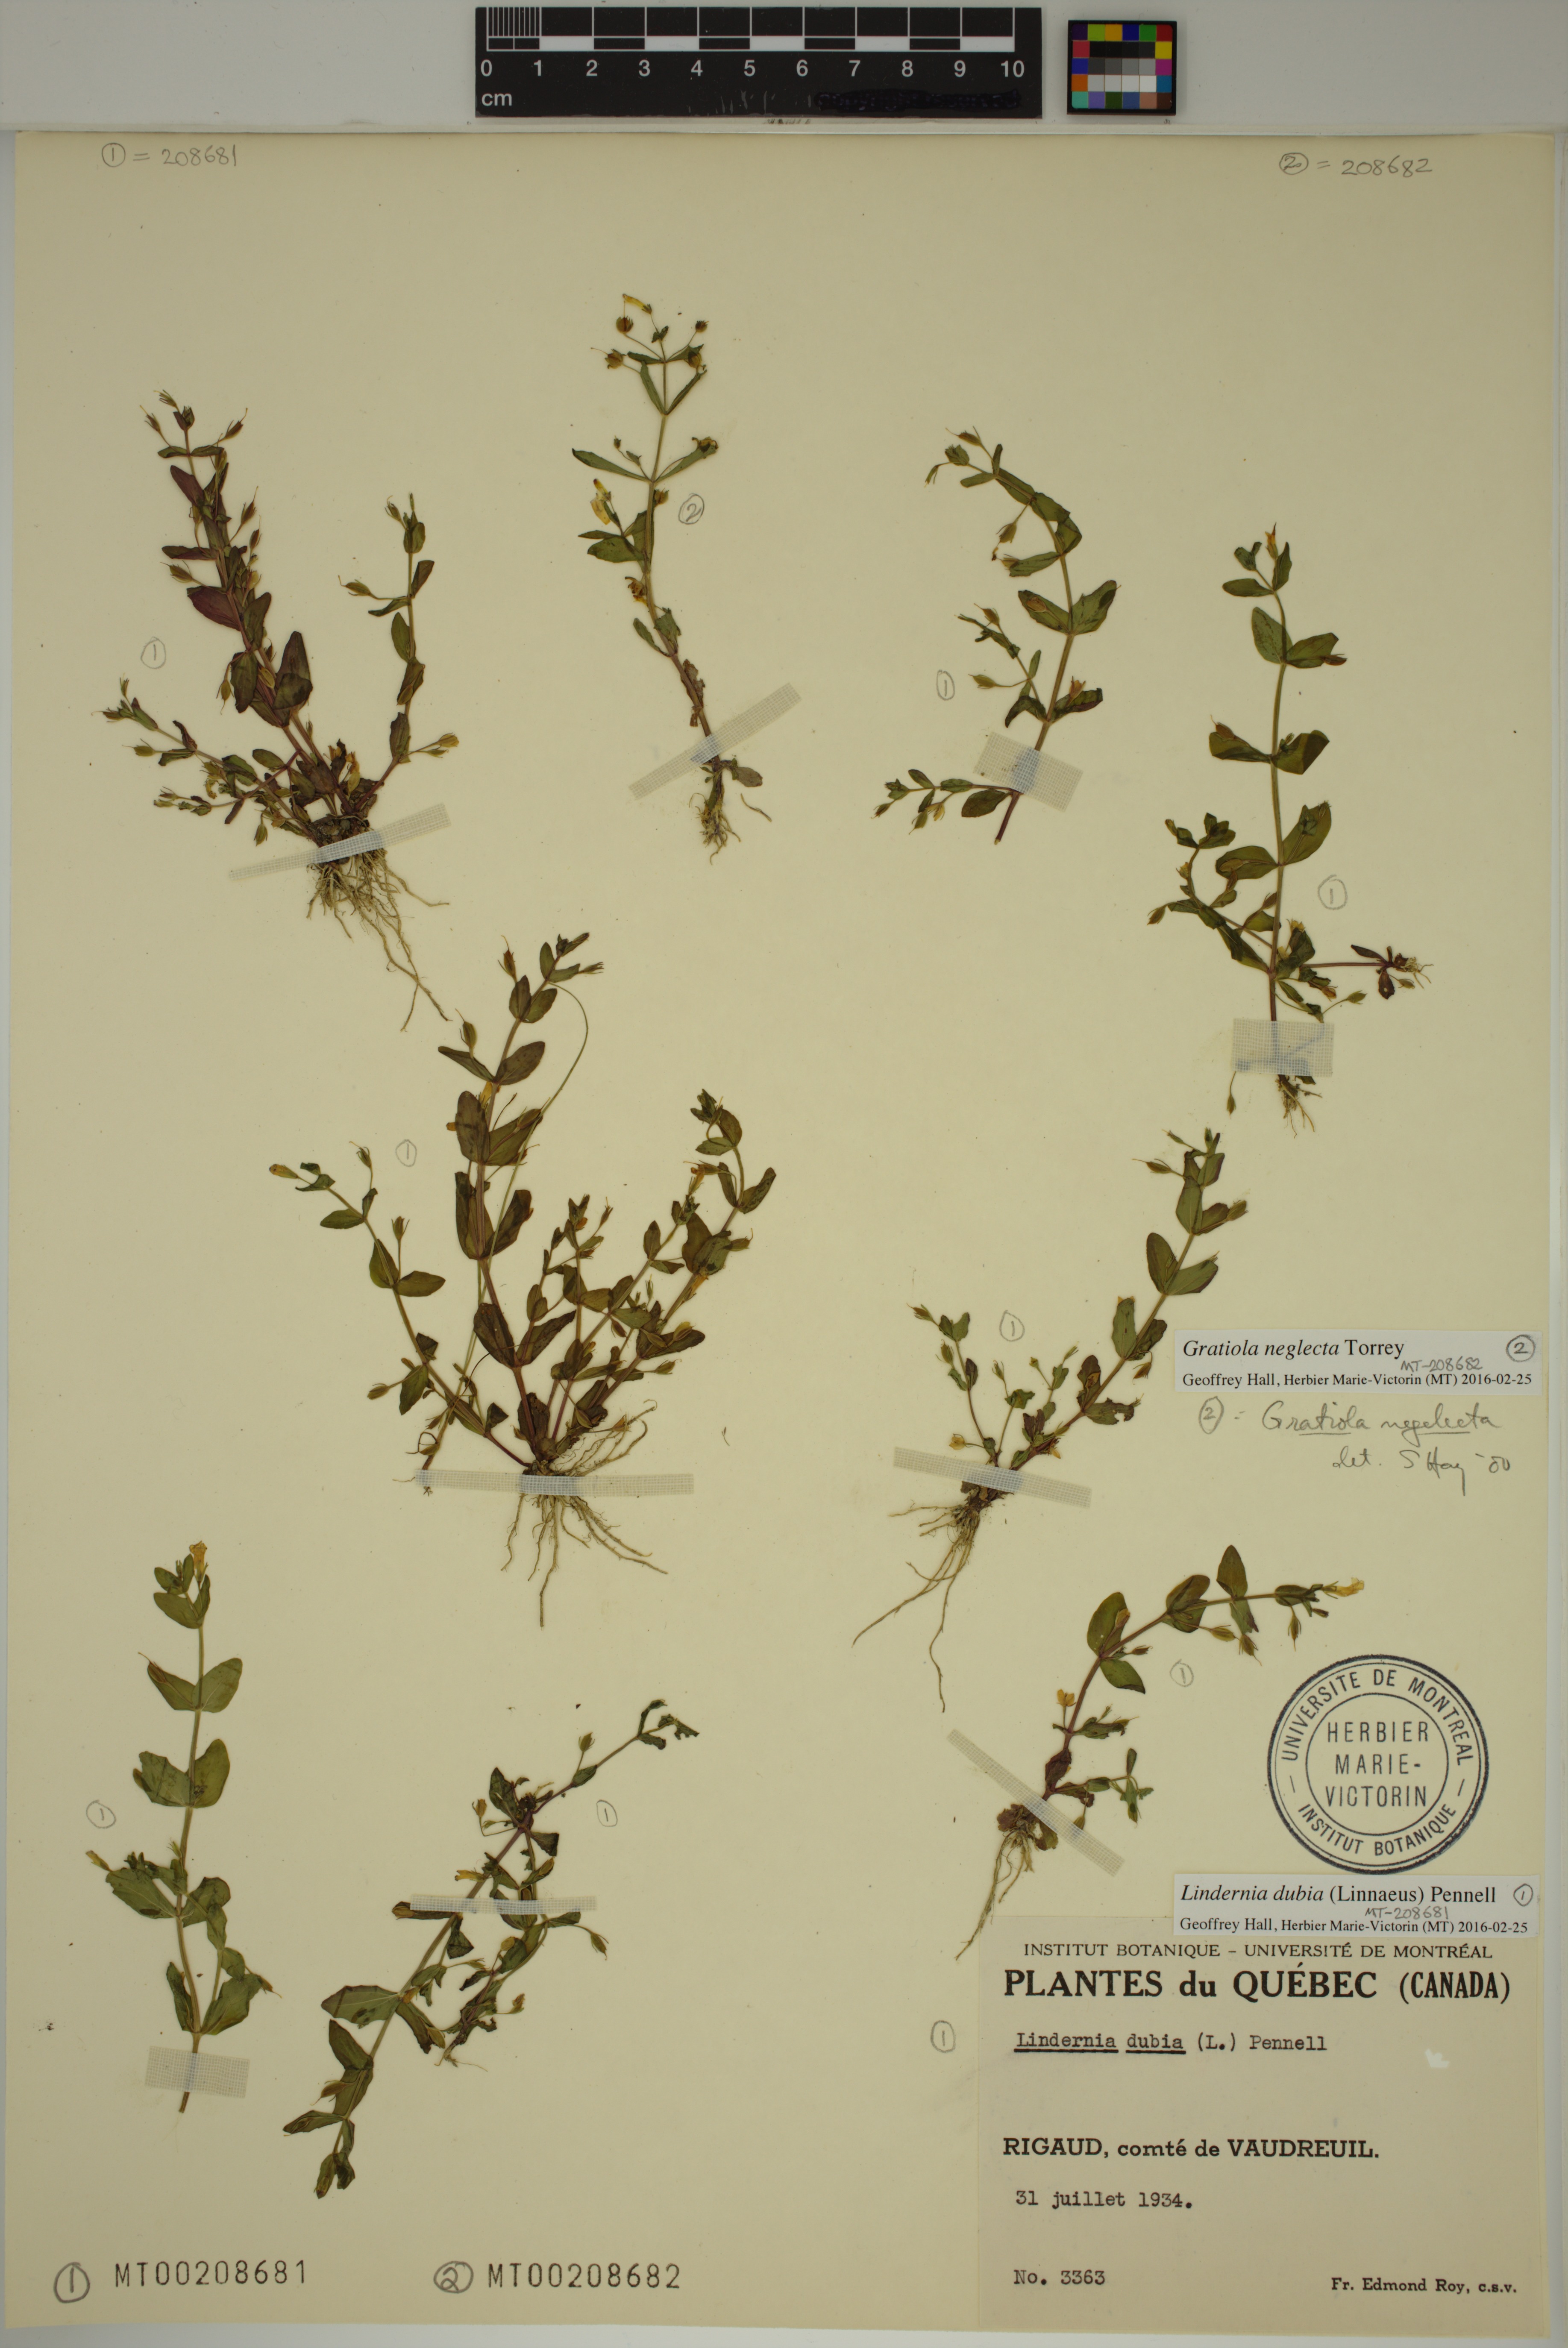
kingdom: Plantae
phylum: Tracheophyta
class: Magnoliopsida
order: Lamiales
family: Linderniaceae
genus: Lindernia
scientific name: Lindernia dubia
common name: Annual false pimpernel
